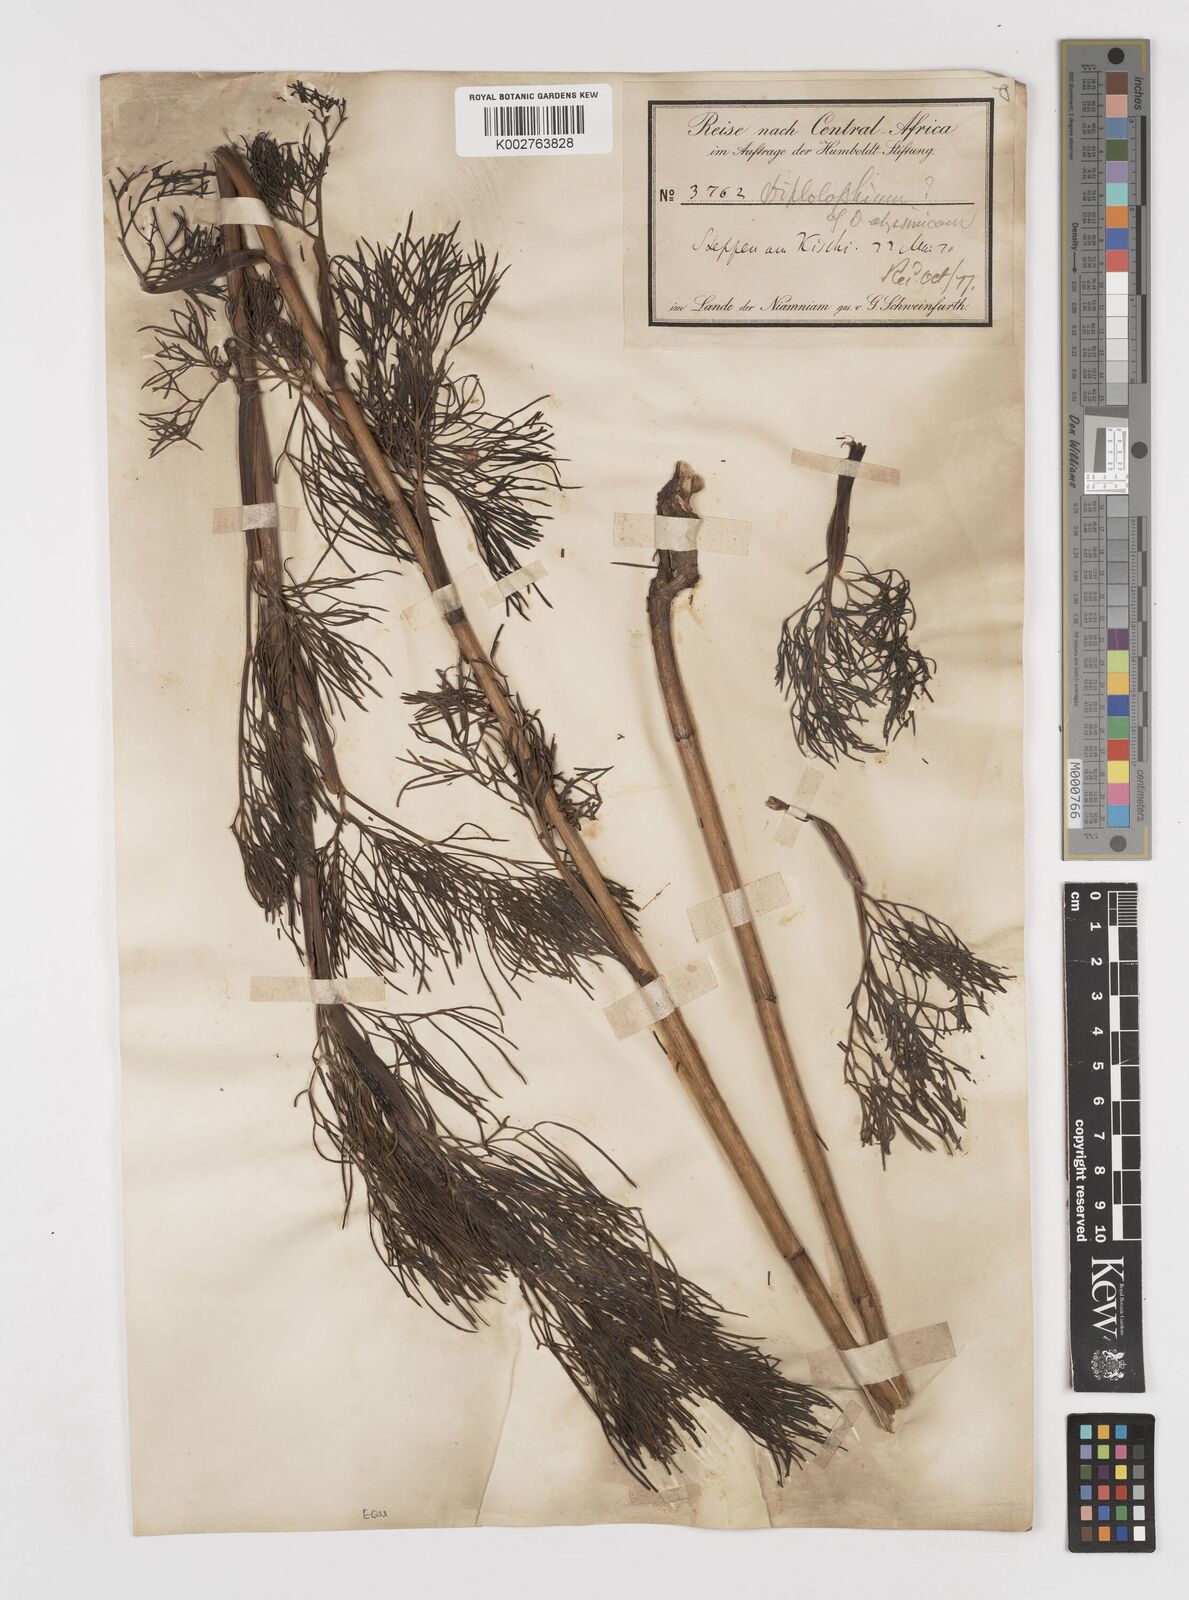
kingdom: Plantae
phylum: Tracheophyta
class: Magnoliopsida
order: Apiales
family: Apiaceae
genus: Diplolophium
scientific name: Diplolophium africanum
